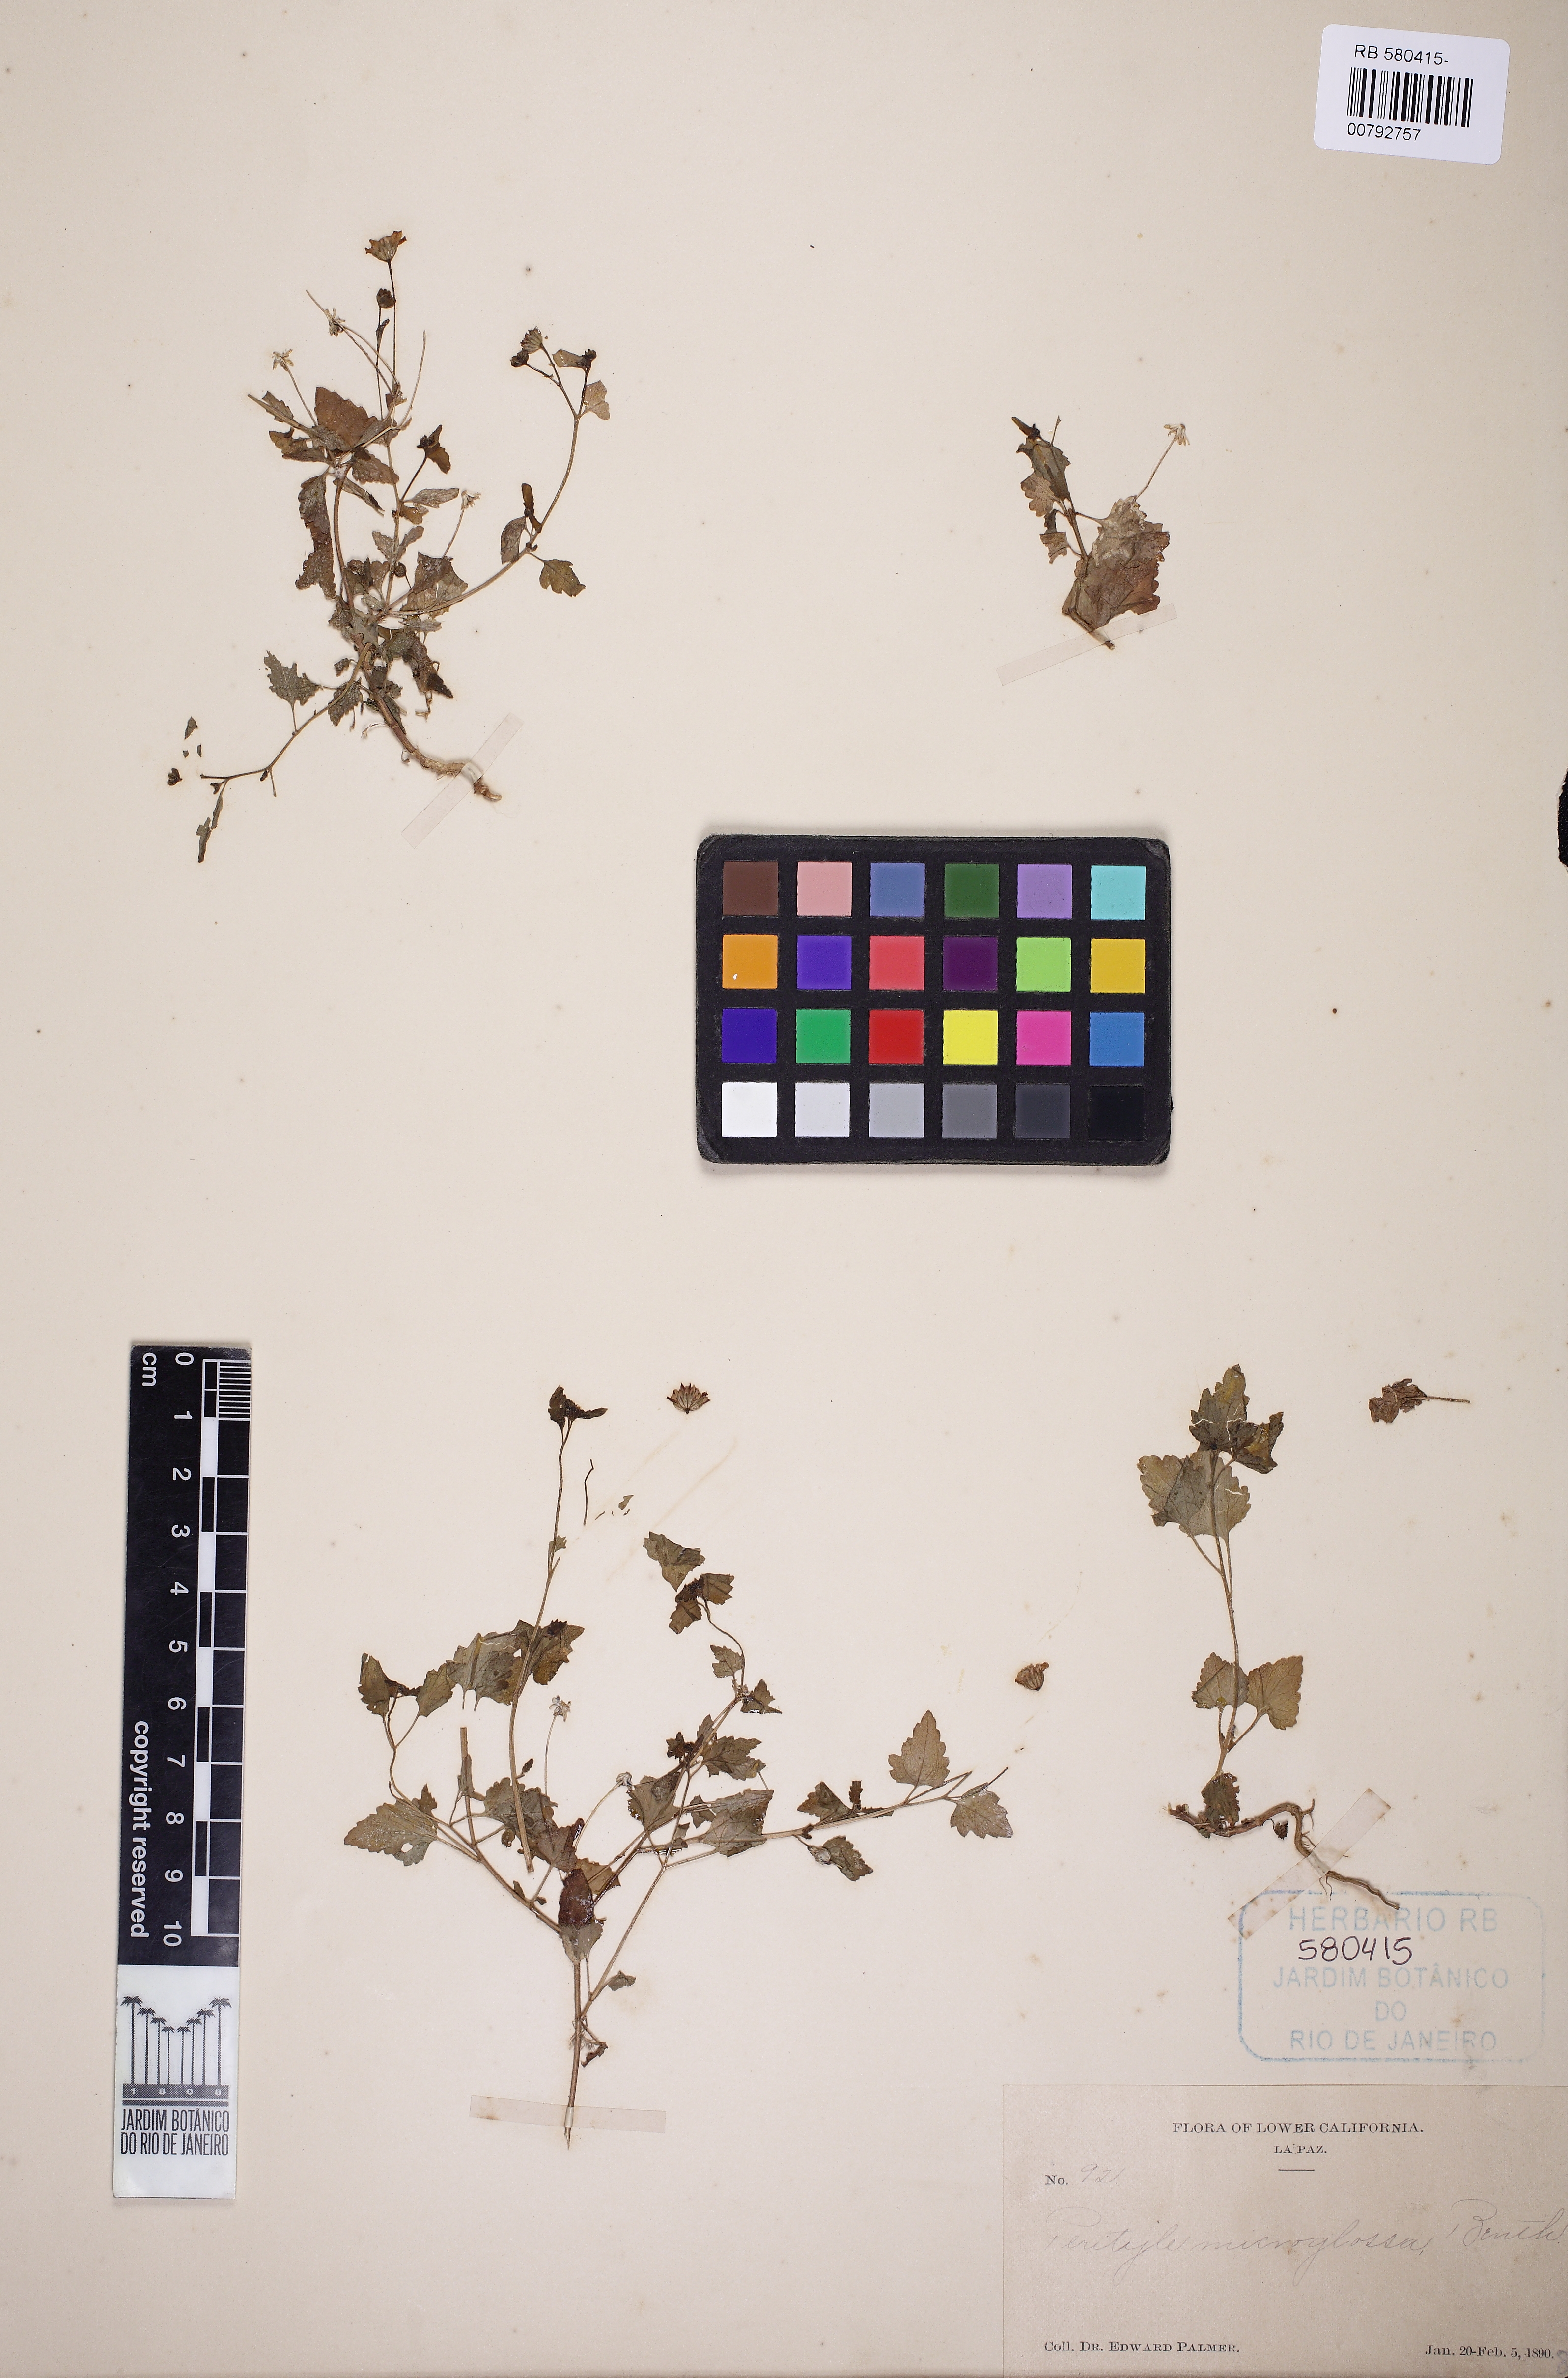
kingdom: Plantae
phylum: Tracheophyta
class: Magnoliopsida
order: Asterales
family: Asteraceae
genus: Galinsogeopsis
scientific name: Galinsogeopsis spilanthoides
